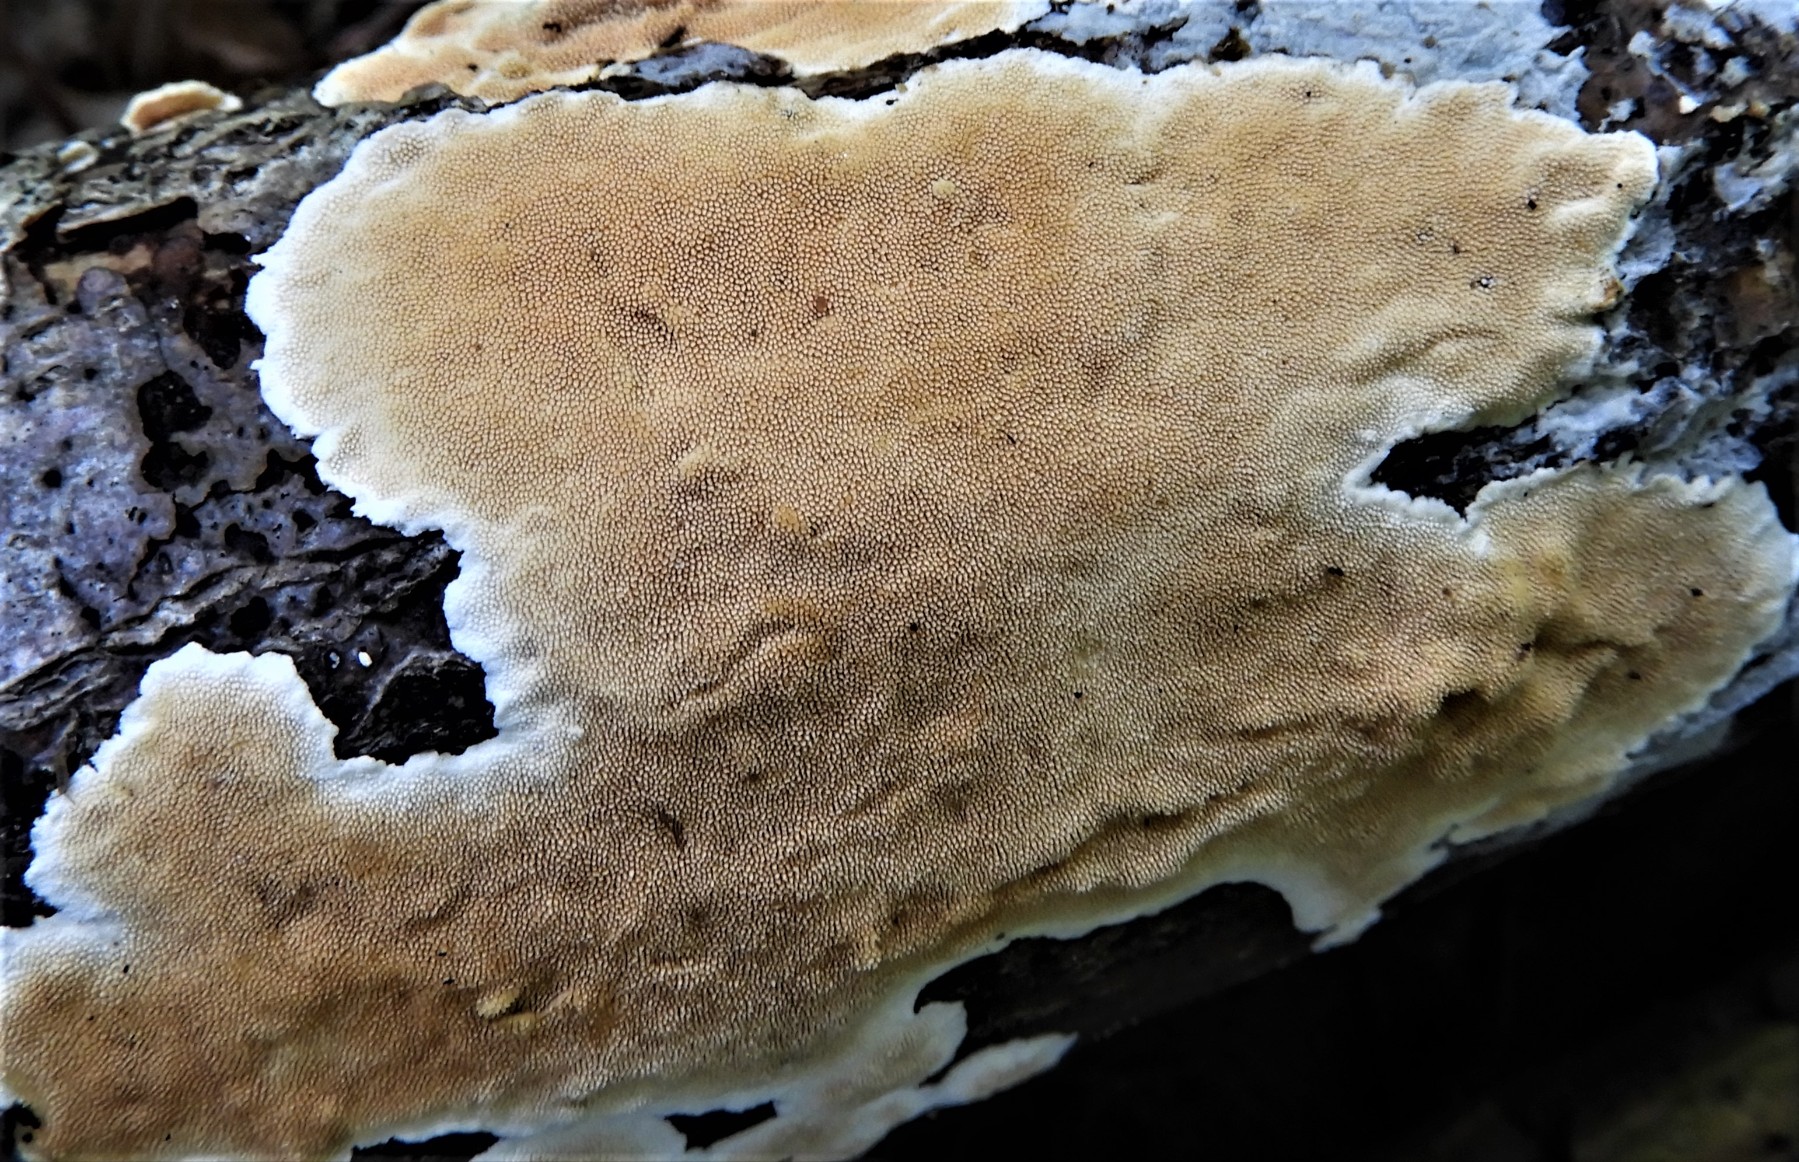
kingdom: Fungi
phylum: Basidiomycota
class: Agaricomycetes
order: Polyporales
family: Steccherinaceae
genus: Steccherinum
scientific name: Steccherinum ochraceum
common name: almindelig skønpig
